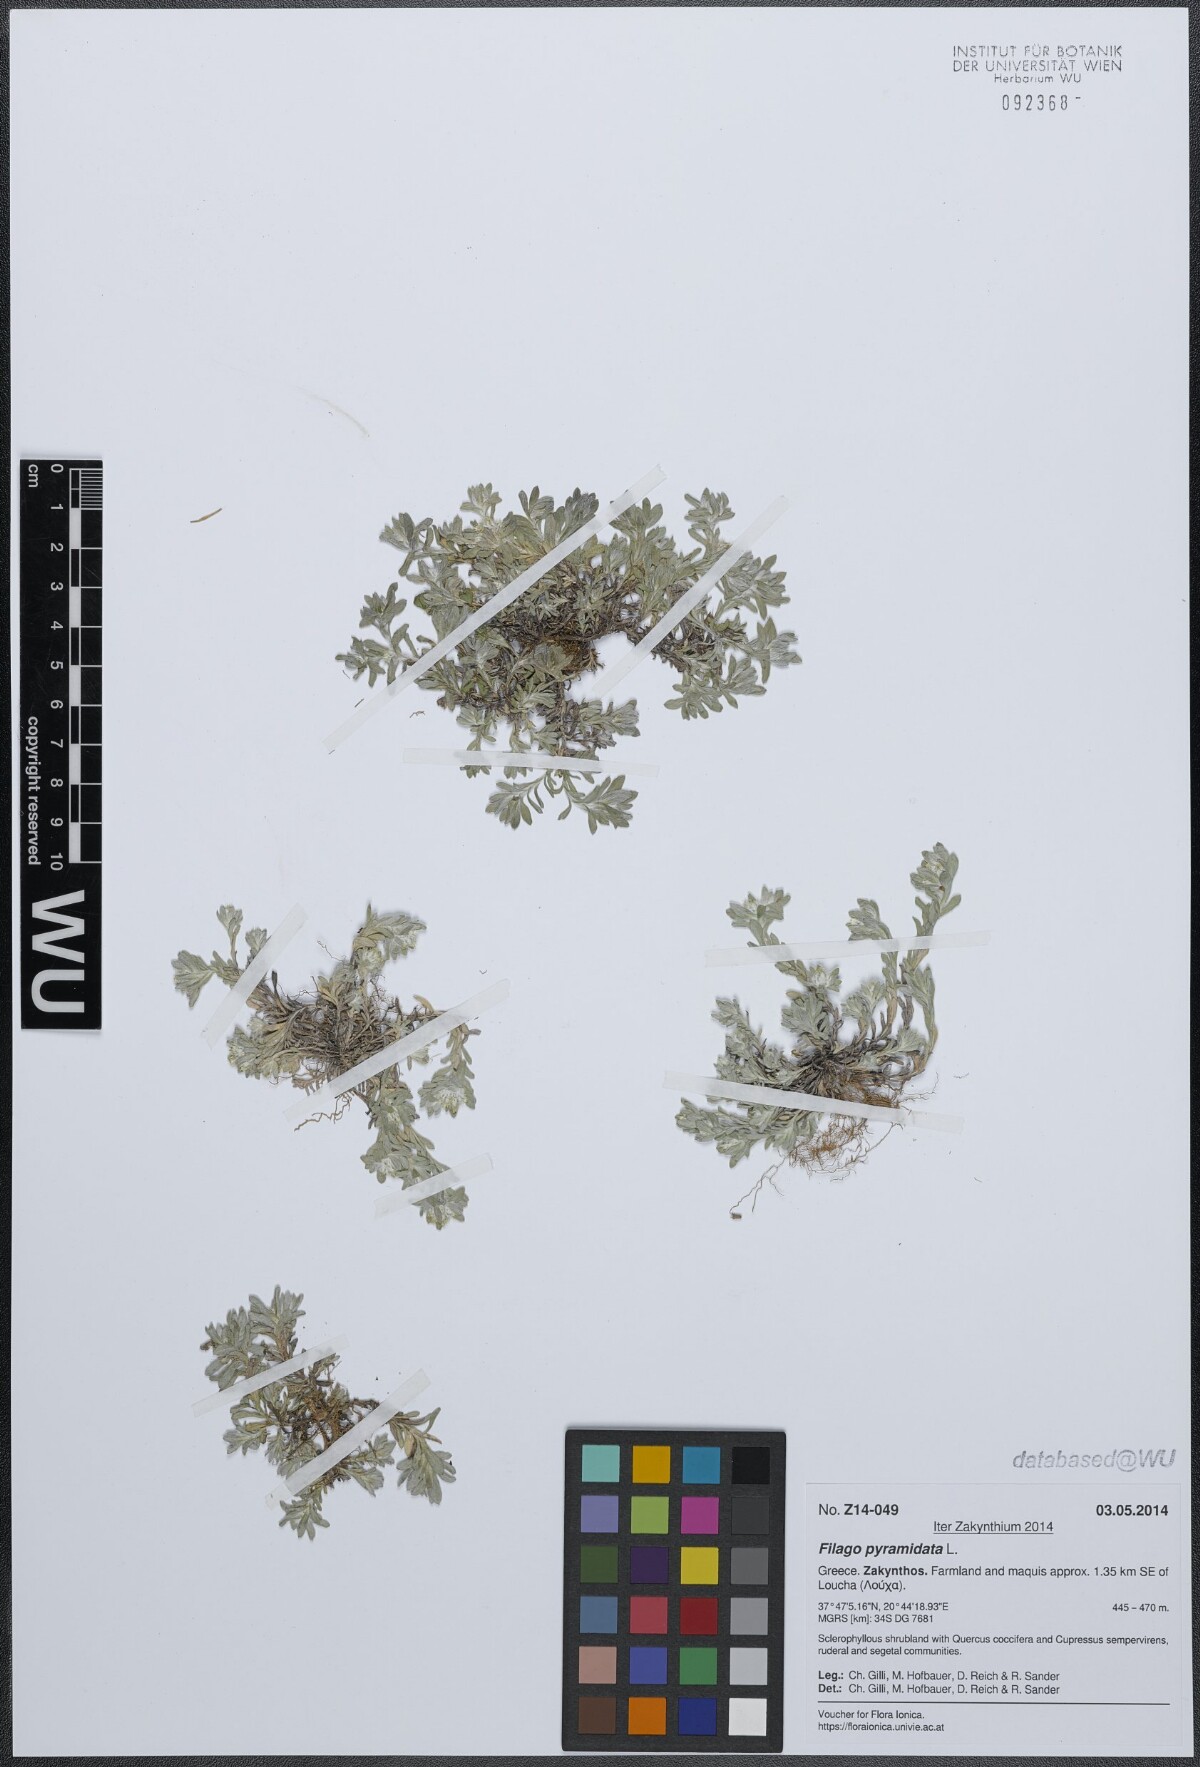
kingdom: Plantae
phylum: Tracheophyta
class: Magnoliopsida
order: Asterales
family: Asteraceae
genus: Filago
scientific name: Filago pyramidata
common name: Broad-leaved cudweed
